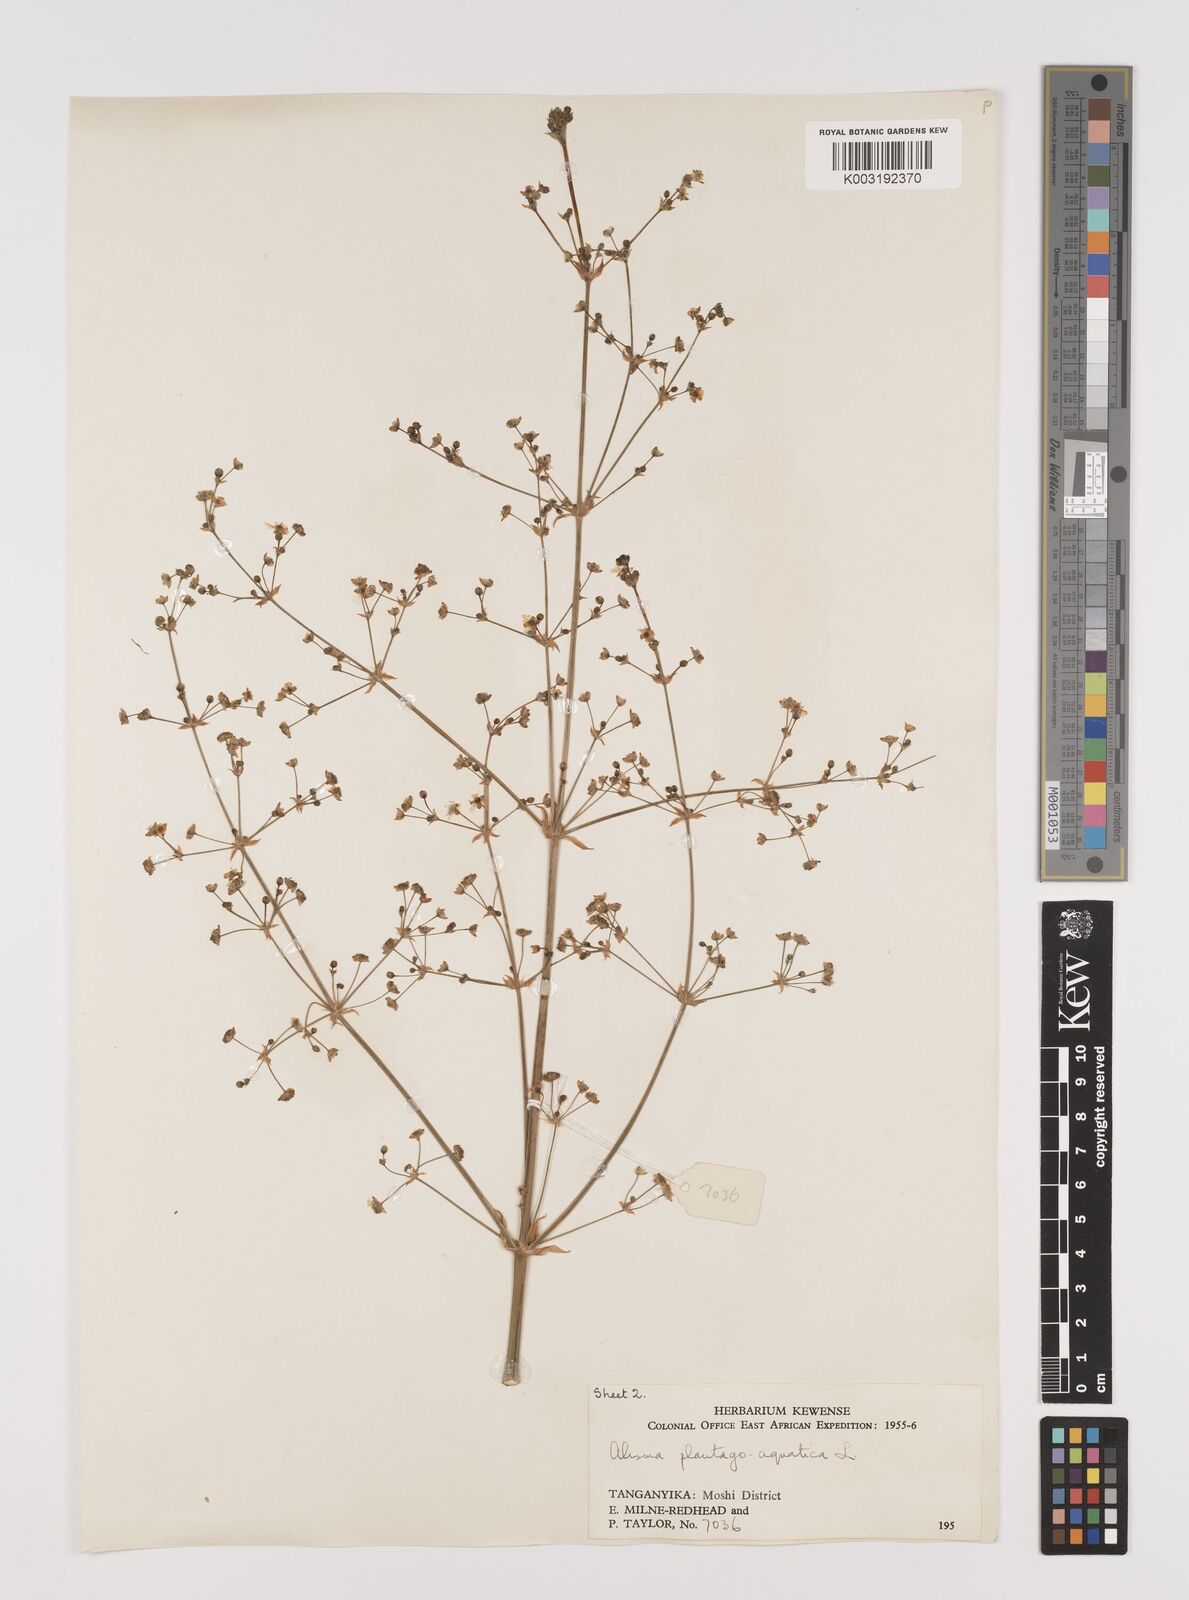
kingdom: Plantae
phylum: Tracheophyta
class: Liliopsida
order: Alismatales
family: Alismataceae
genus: Alisma
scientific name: Alisma plantago-aquatica
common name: Water-plantain
